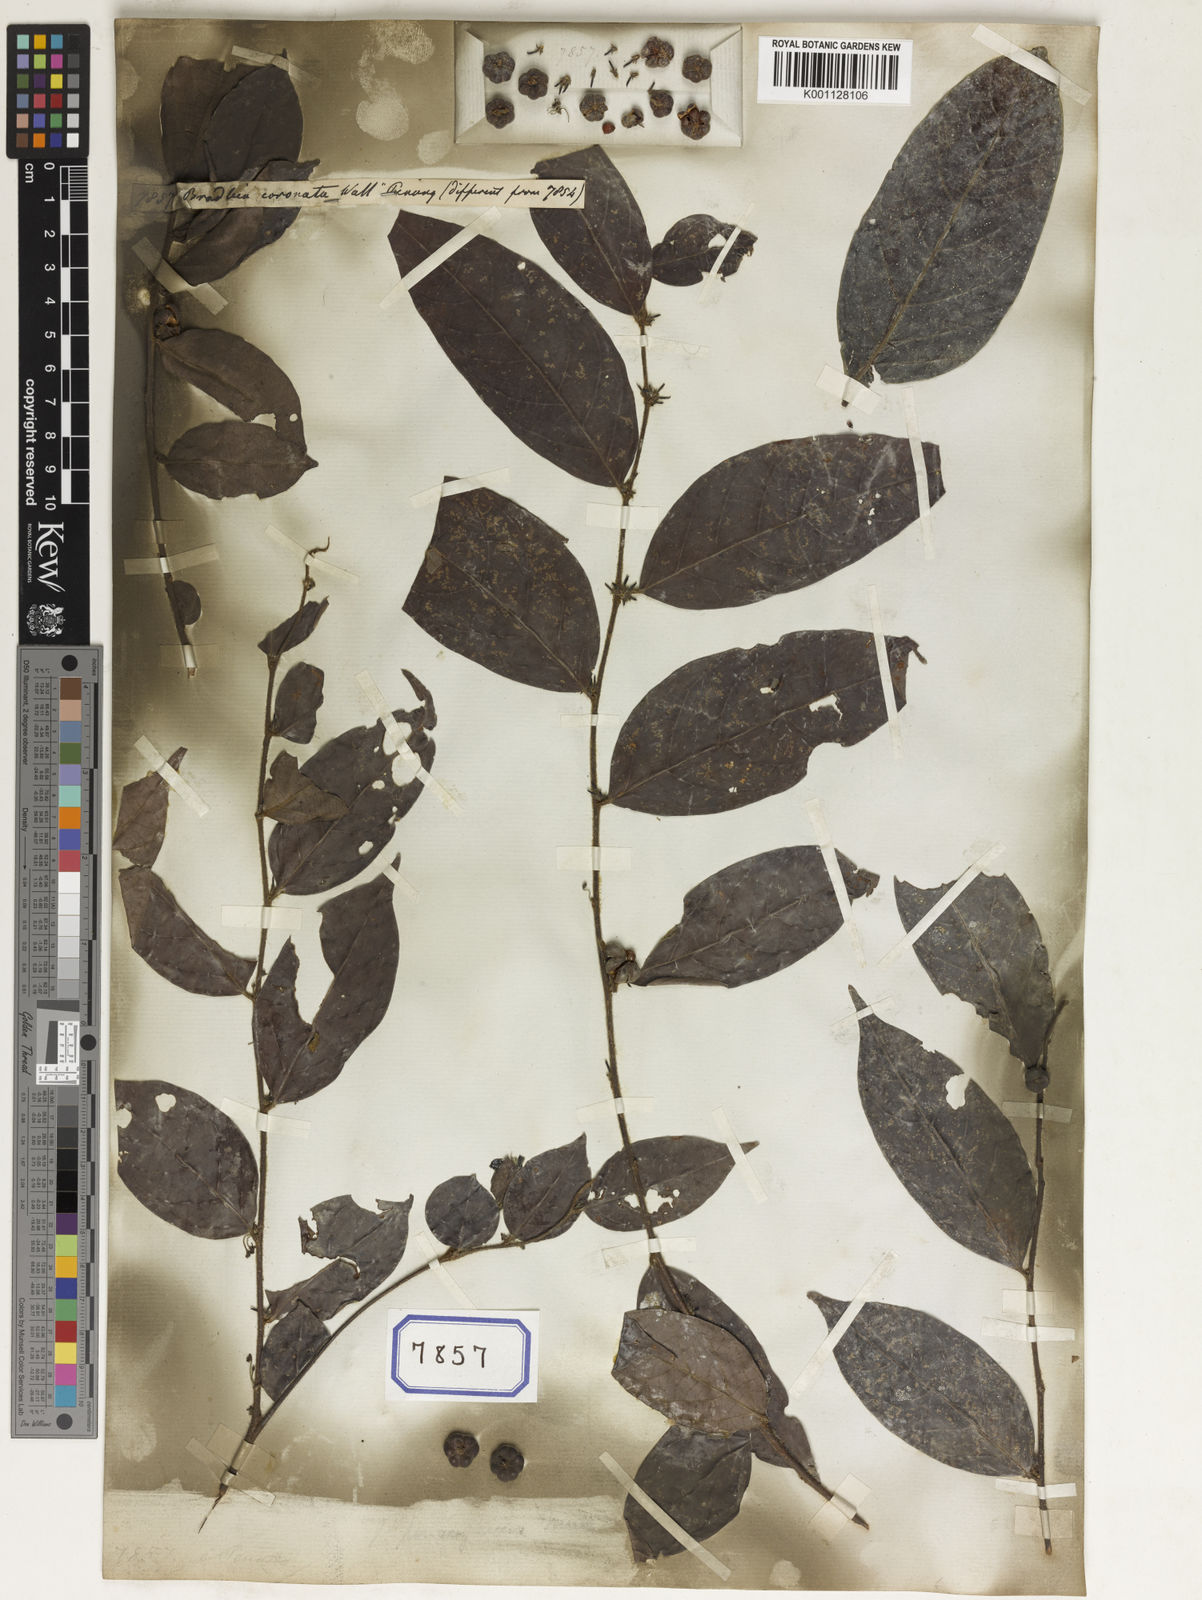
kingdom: Plantae
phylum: Tracheophyta
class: Magnoliopsida
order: Malpighiales
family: Euphorbiaceae
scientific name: Euphorbiaceae
